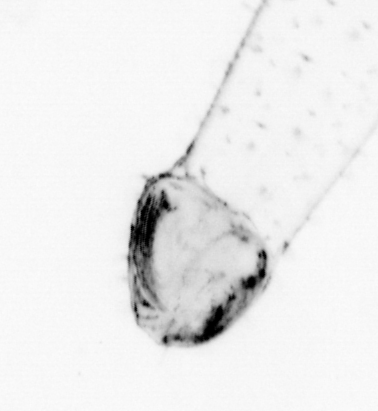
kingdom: Animalia
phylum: Chaetognatha
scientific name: Chaetognatha
